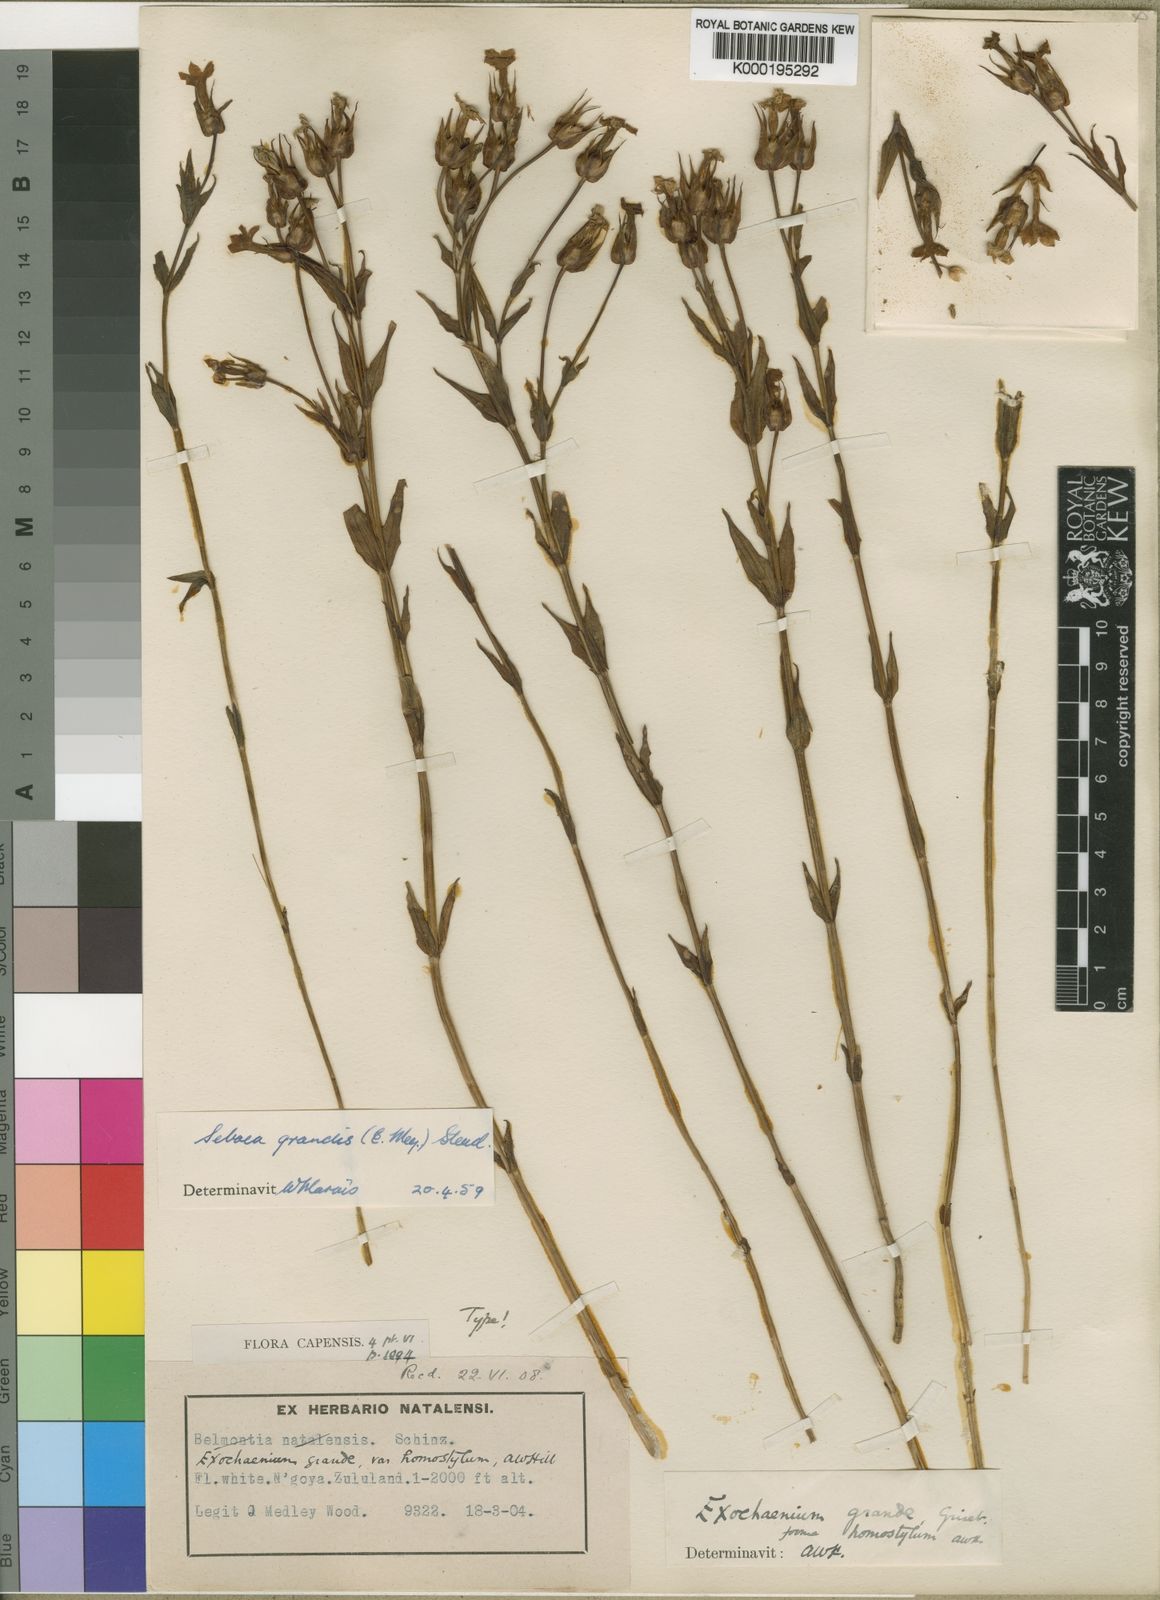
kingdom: Plantae
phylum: Tracheophyta
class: Magnoliopsida
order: Gentianales
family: Gentianaceae
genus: Exochaenium
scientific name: Exochaenium grande
